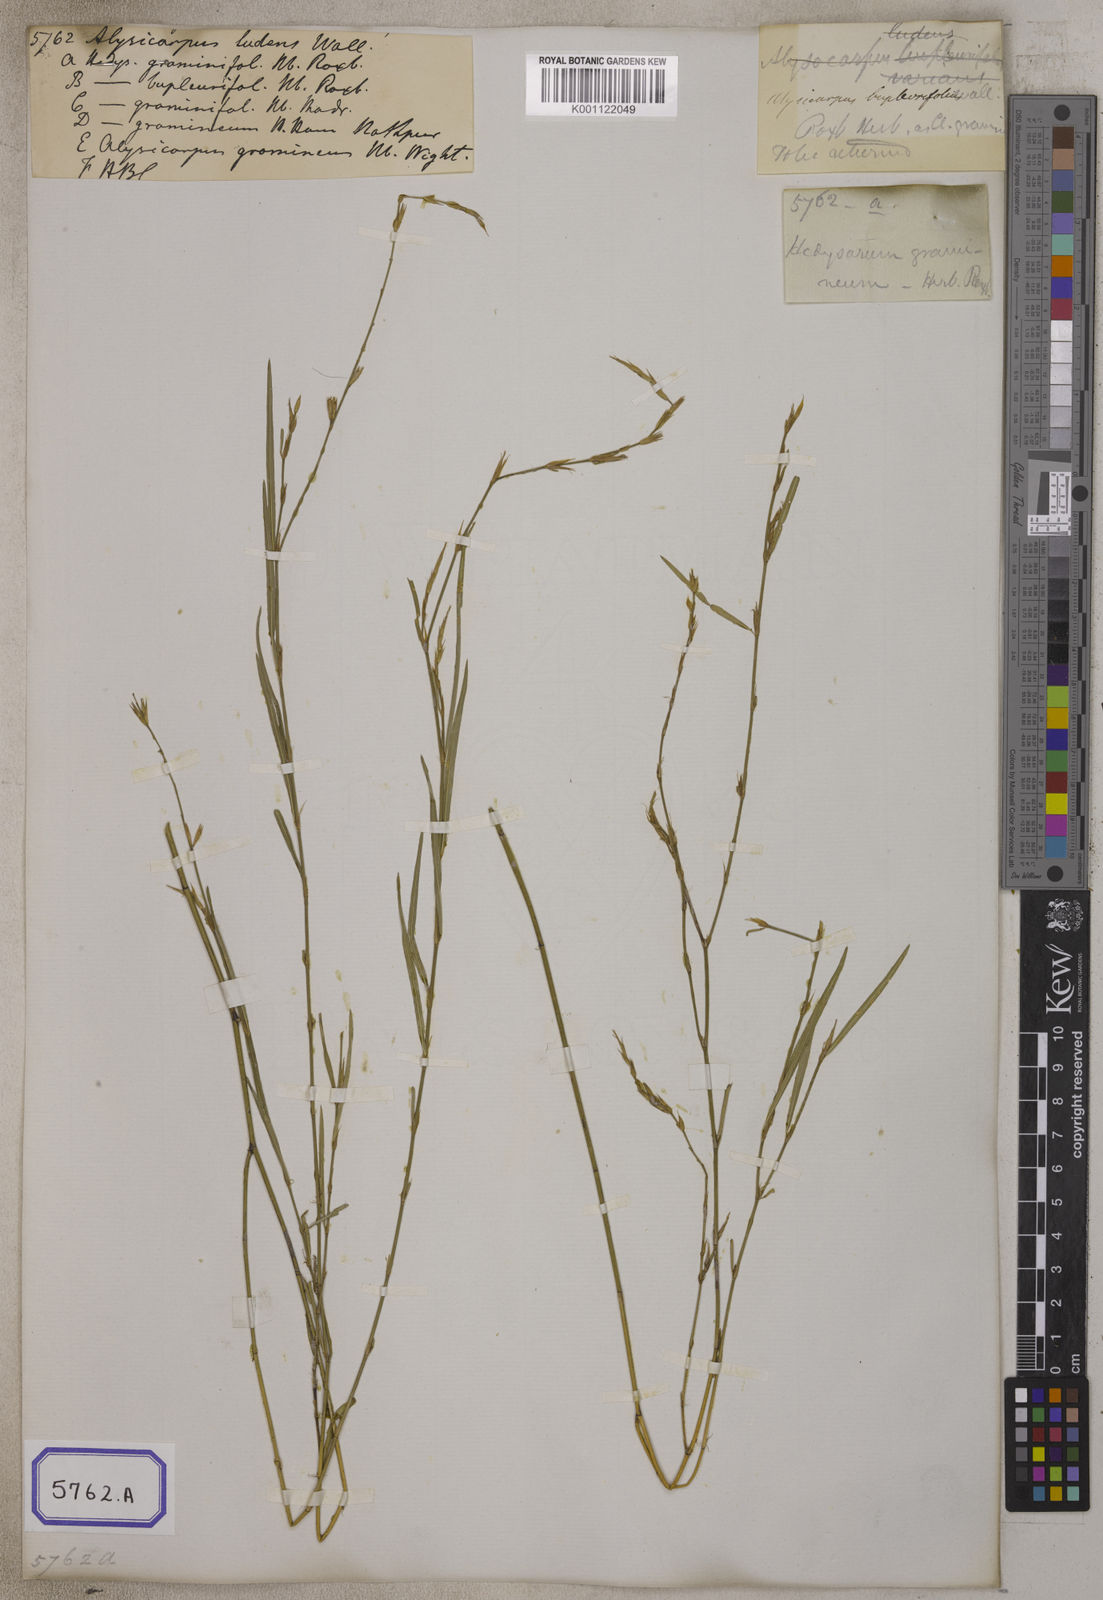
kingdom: Plantae
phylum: Tracheophyta
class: Magnoliopsida
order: Fabales
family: Fabaceae
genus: Alysicarpus
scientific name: Alysicarpus
